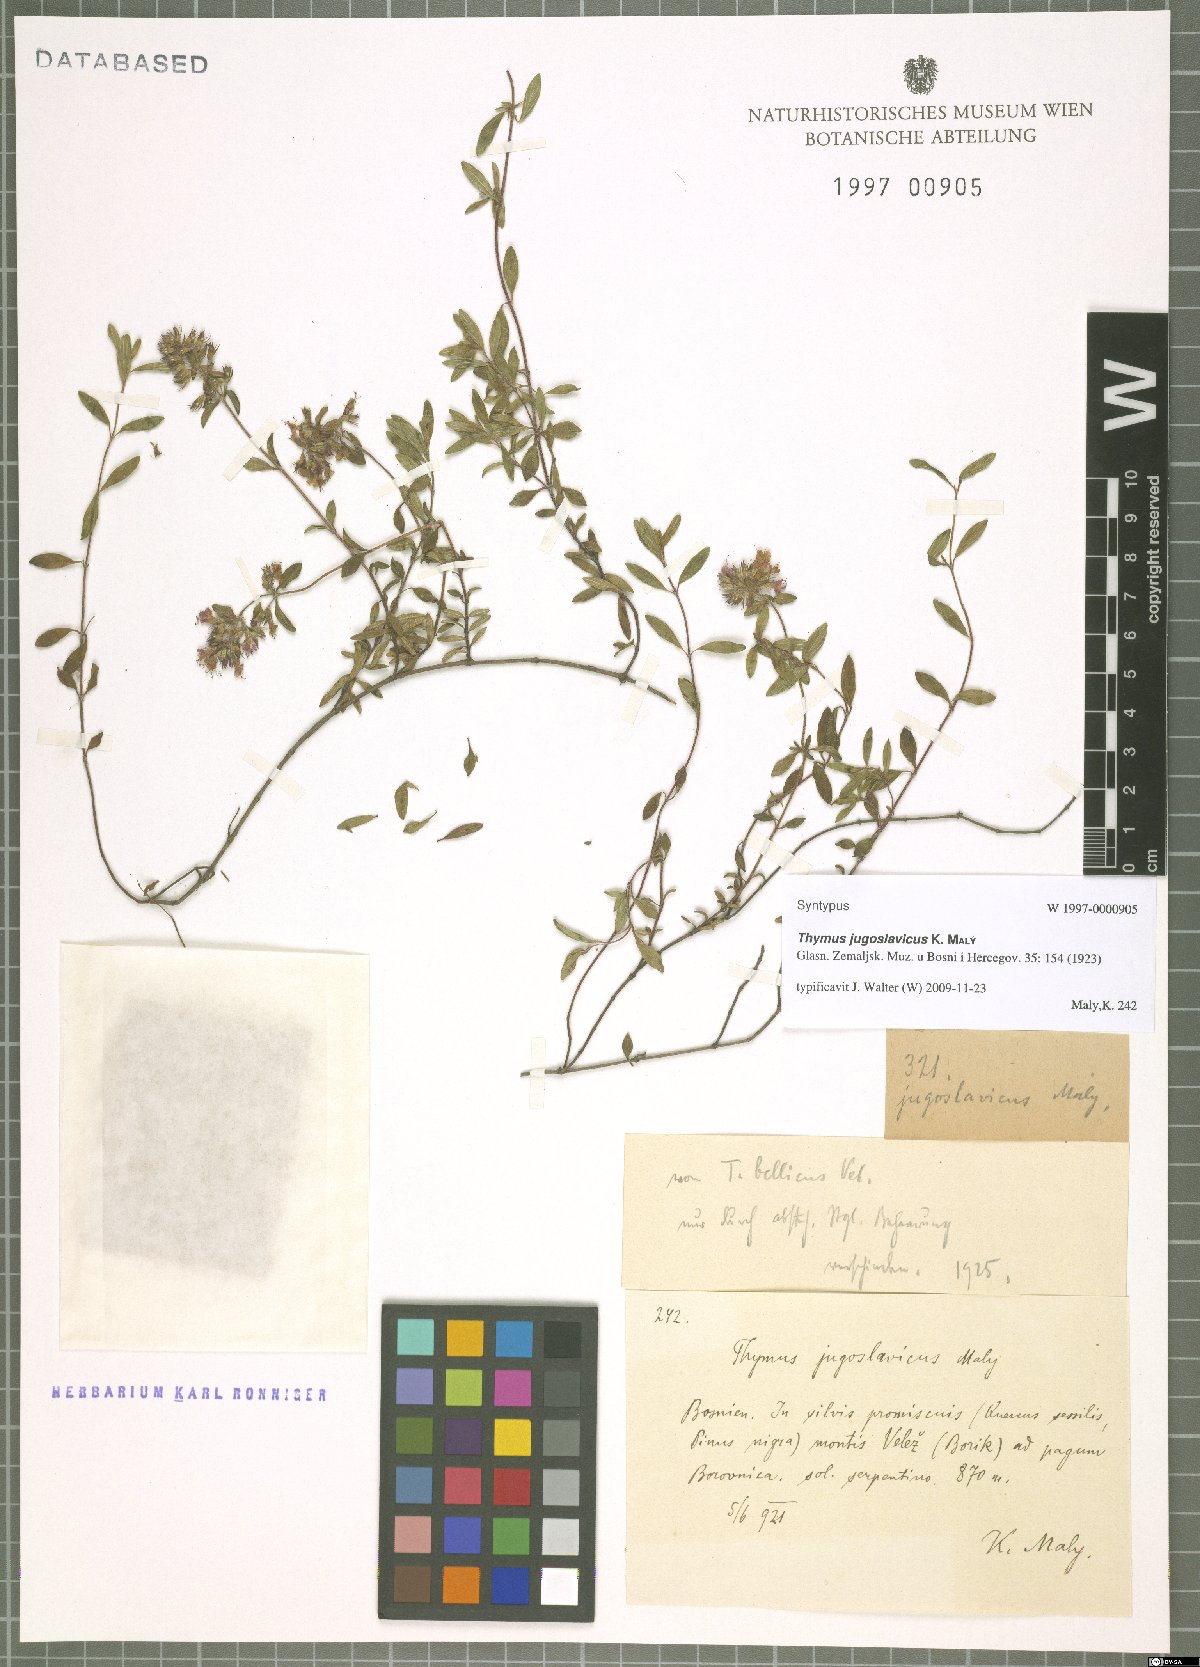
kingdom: Plantae
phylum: Tracheophyta
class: Magnoliopsida
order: Lamiales
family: Lamiaceae
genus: Thymus
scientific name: Thymus jankae
